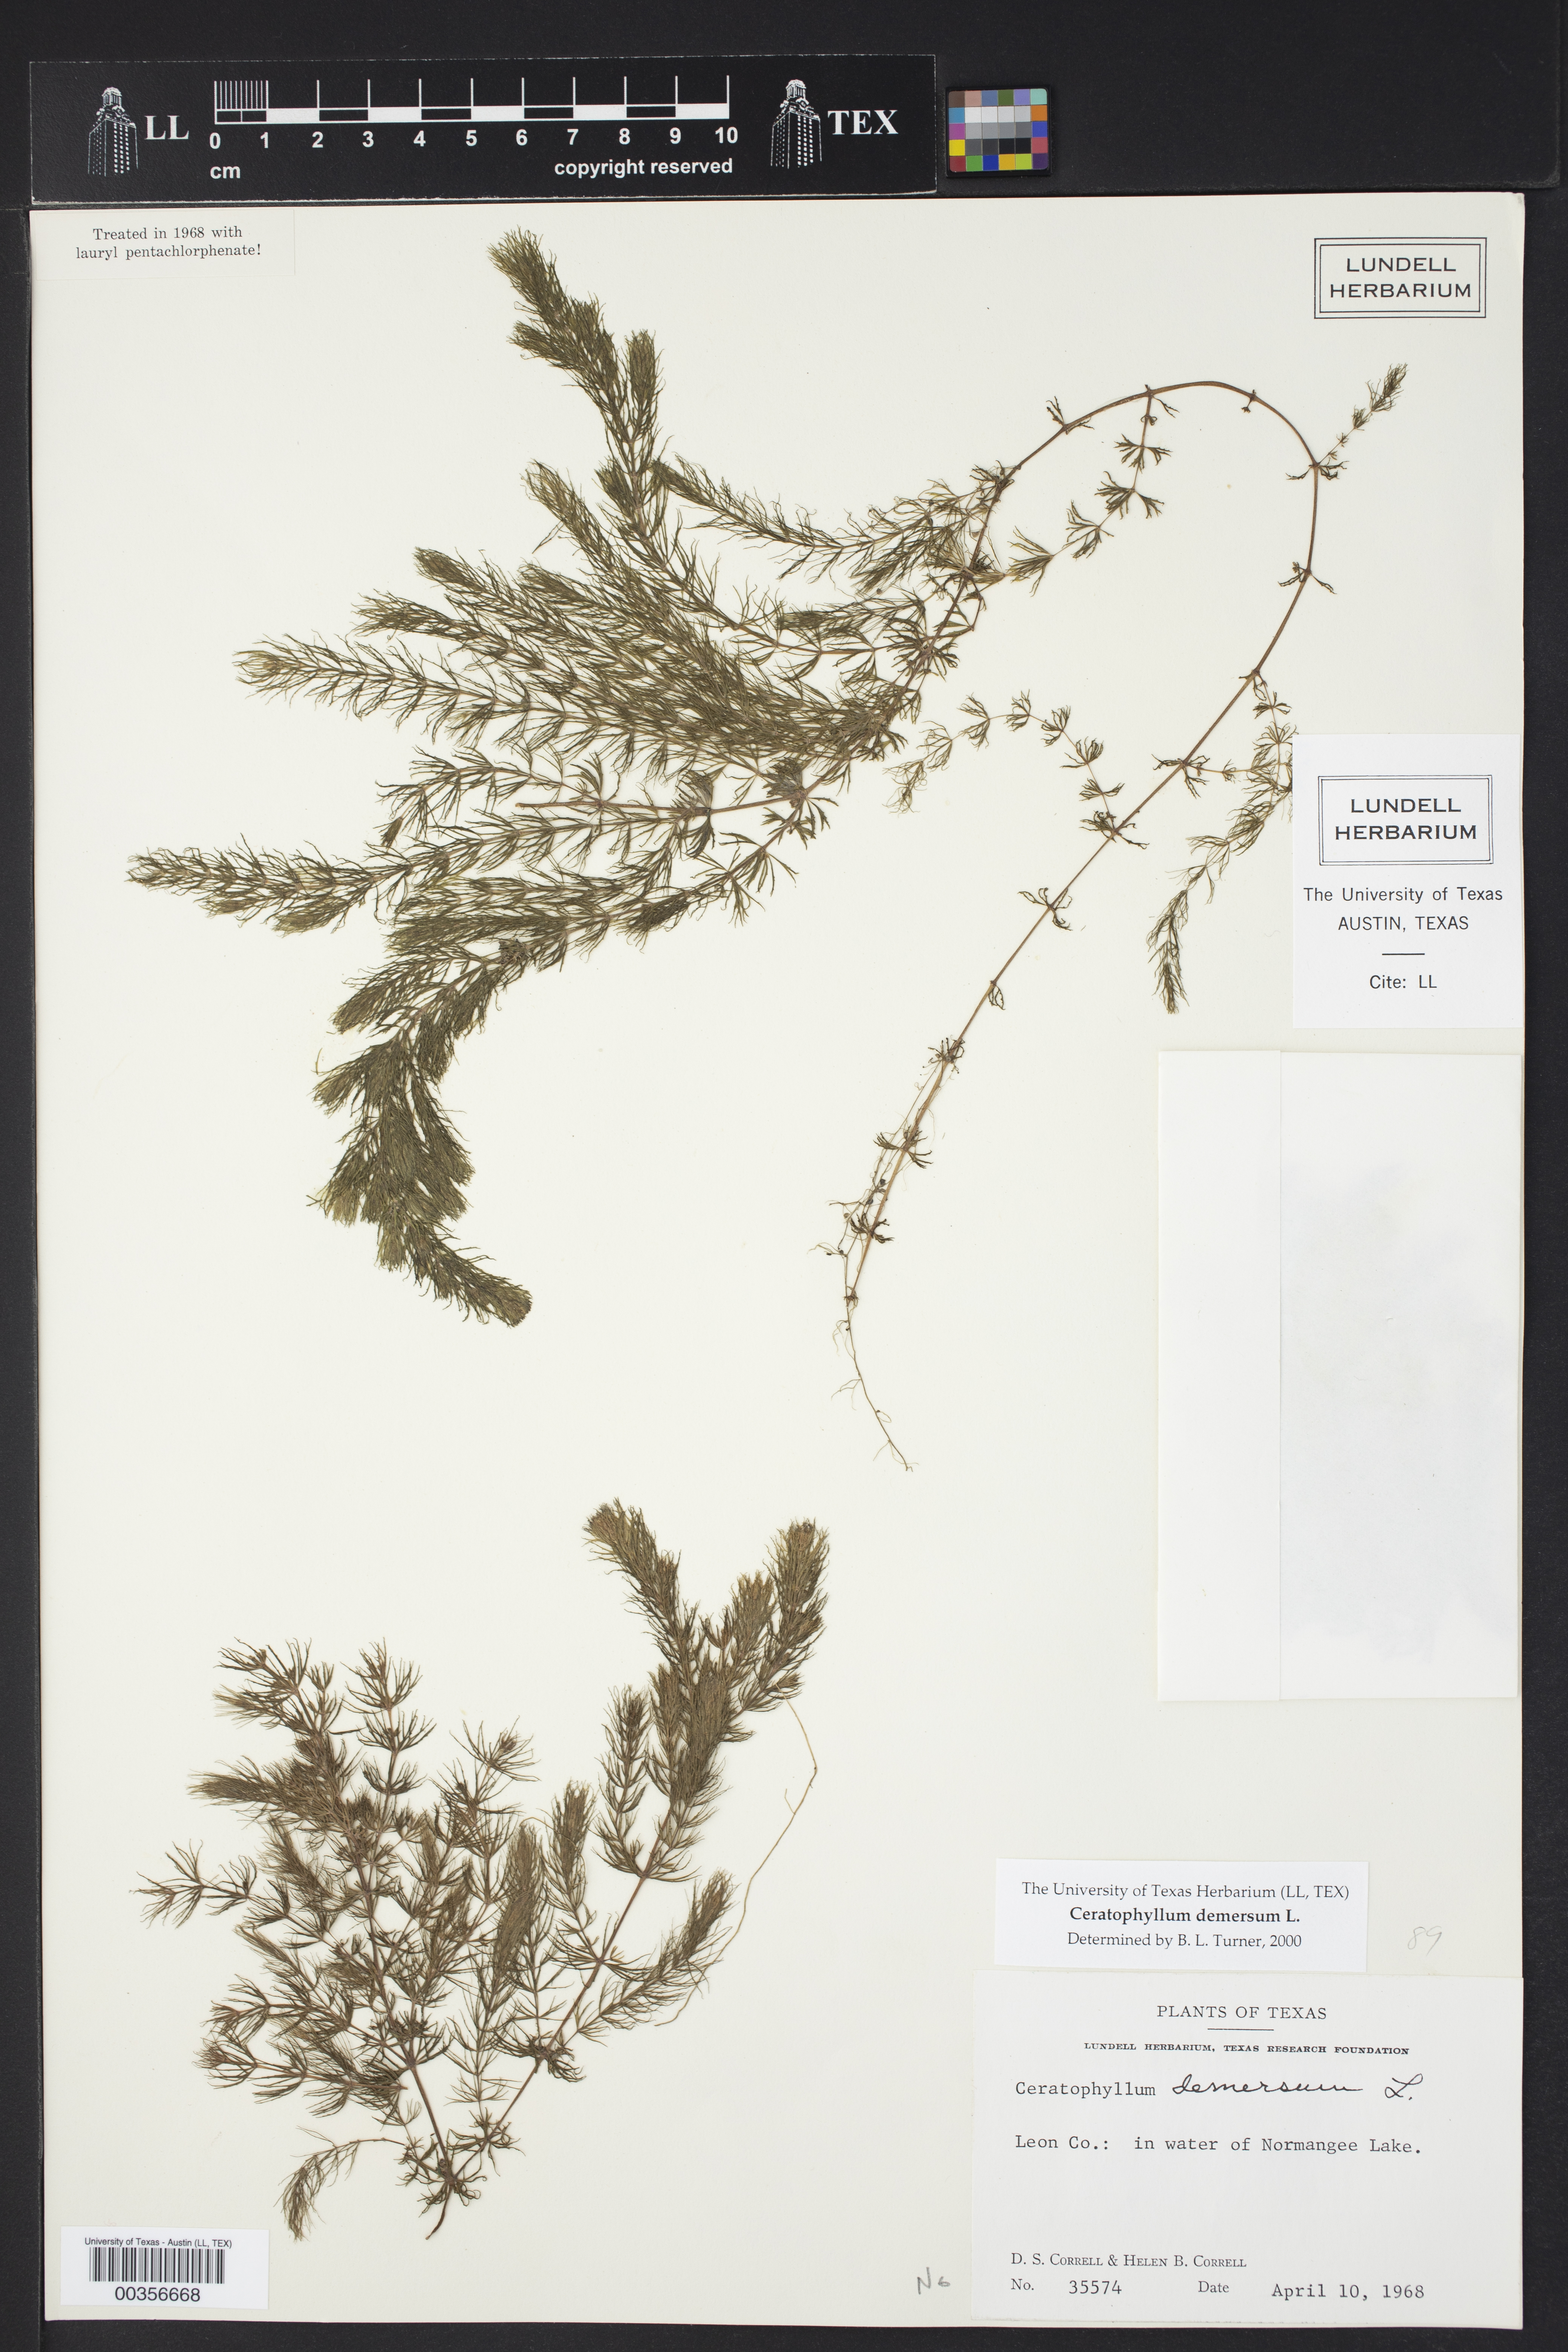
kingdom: Plantae
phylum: Tracheophyta
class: Magnoliopsida
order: Ceratophyllales
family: Ceratophyllaceae
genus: Ceratophyllum
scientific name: Ceratophyllum demersum
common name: Rigid hornwort
